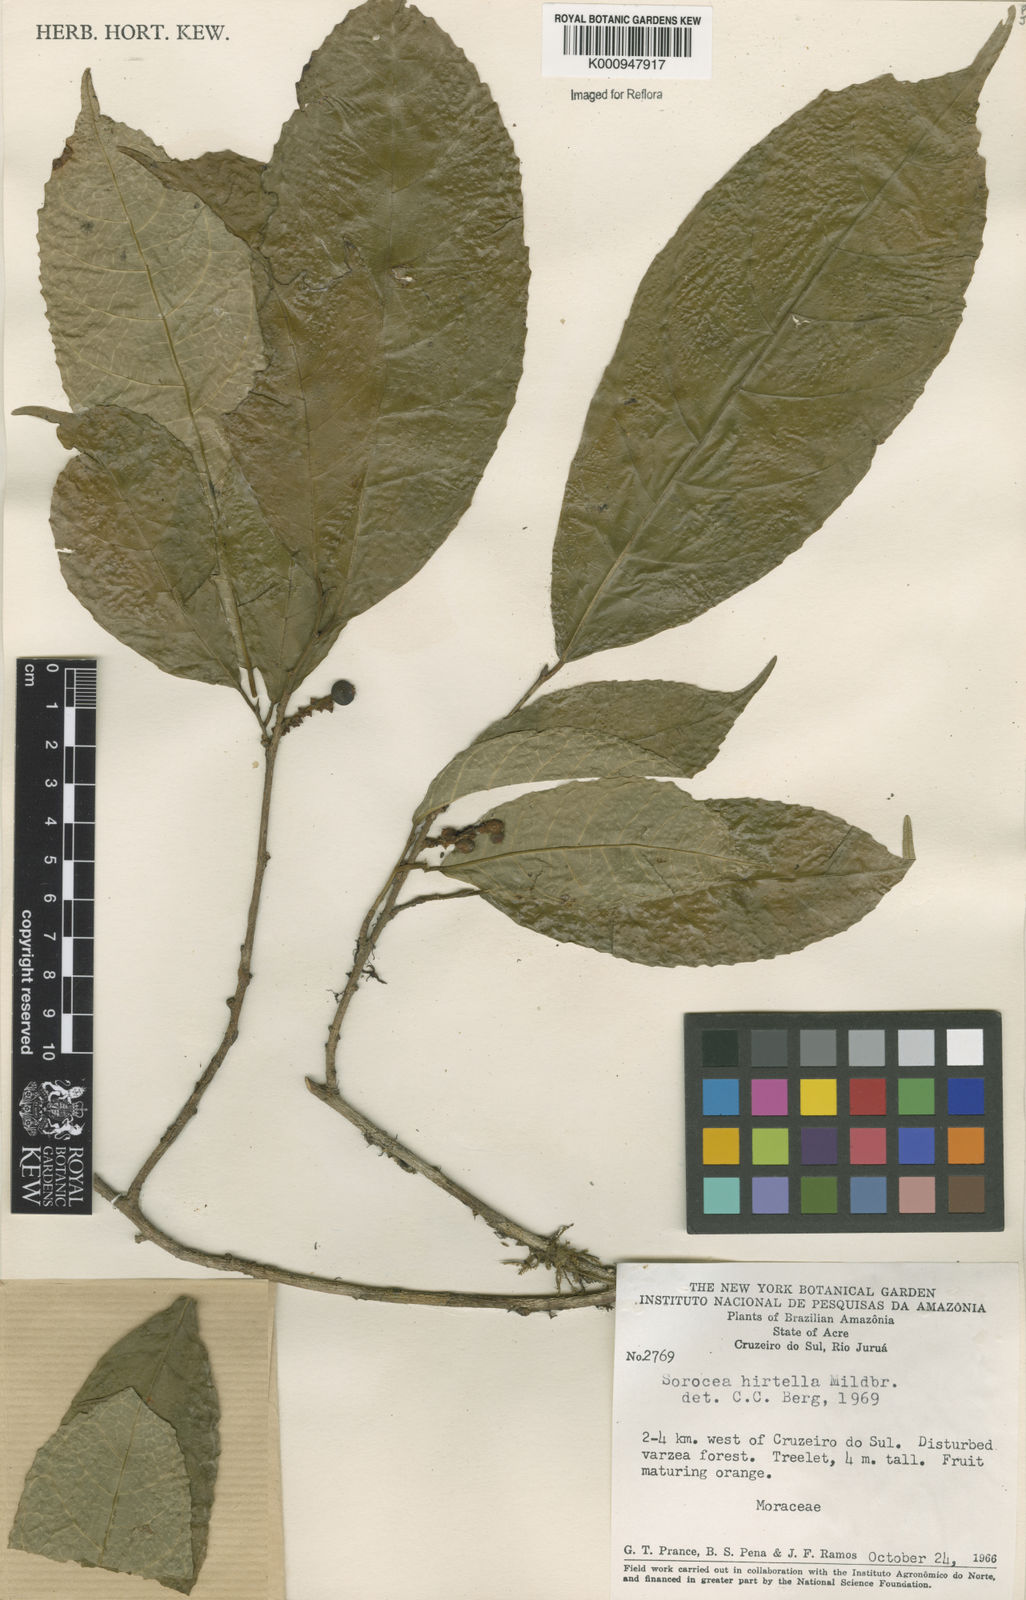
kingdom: Plantae
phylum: Tracheophyta
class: Magnoliopsida
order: Rosales
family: Moraceae
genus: Sorocea
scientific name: Sorocea pubivena
